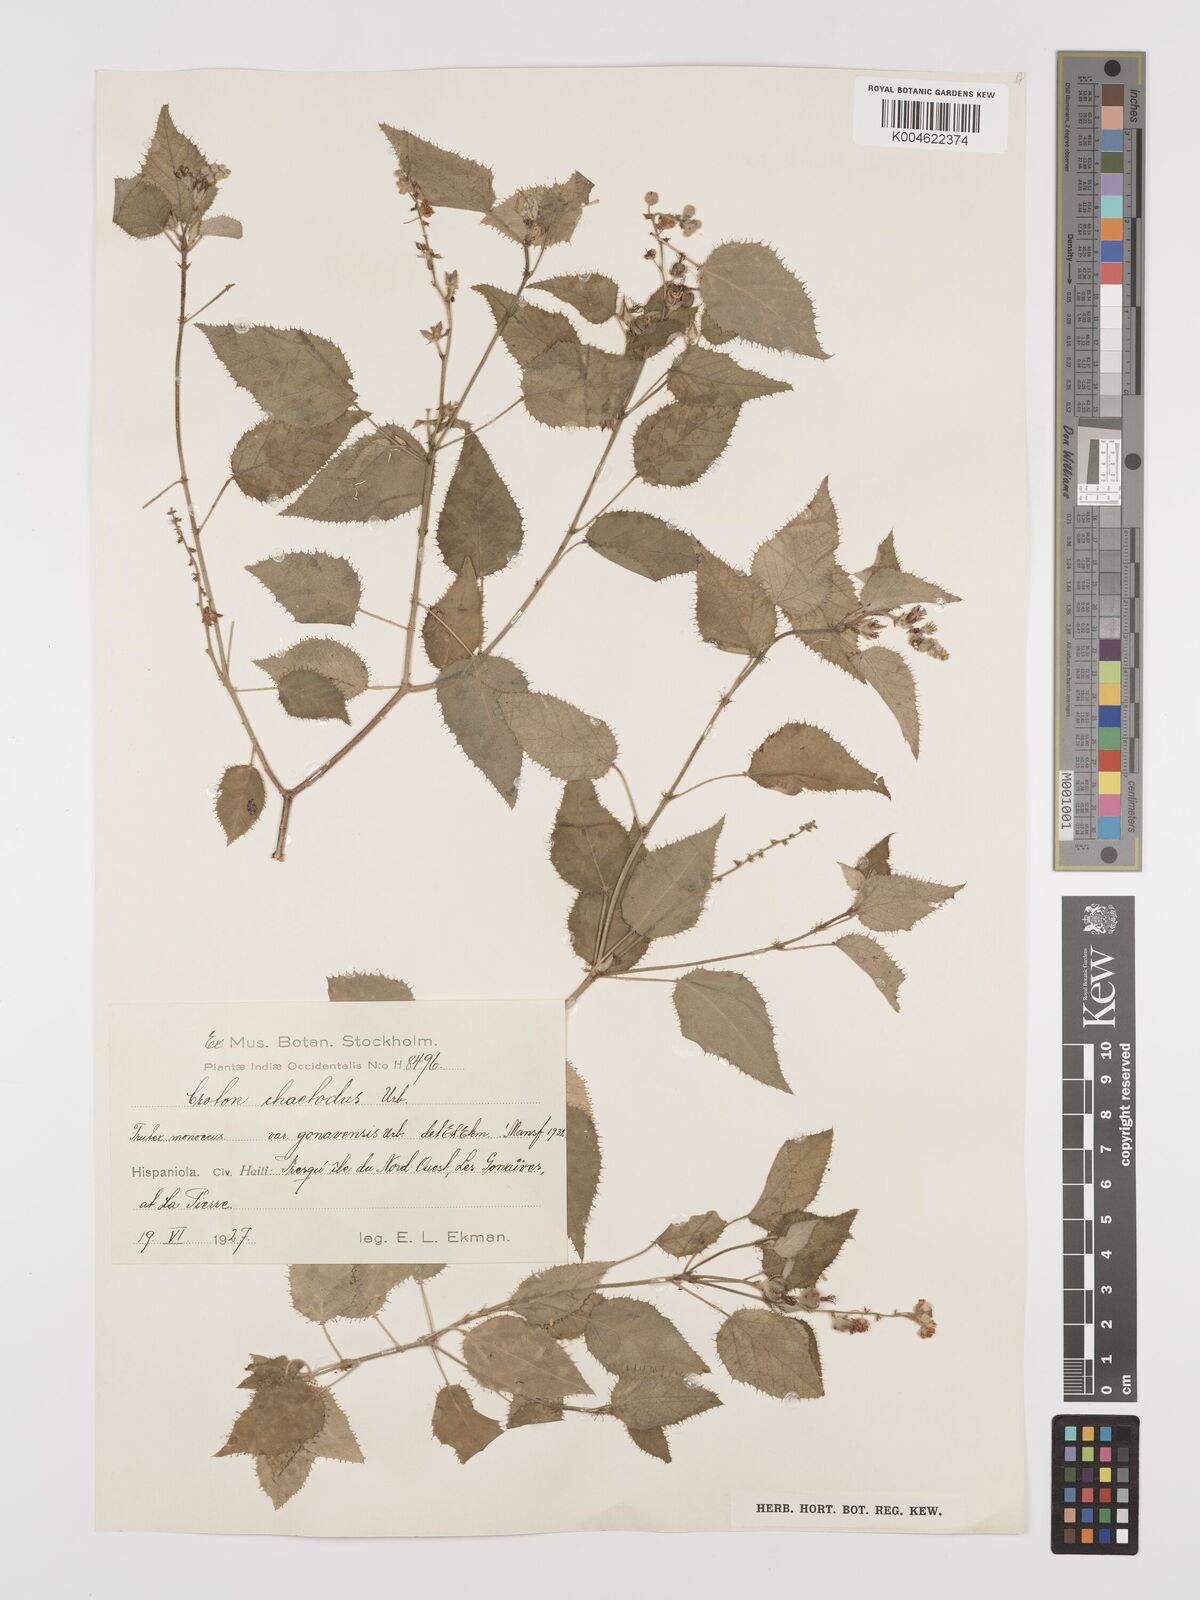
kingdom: Plantae
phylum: Tracheophyta
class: Magnoliopsida
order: Malpighiales
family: Euphorbiaceae
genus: Croton
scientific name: Croton ciliatoglandulifer
